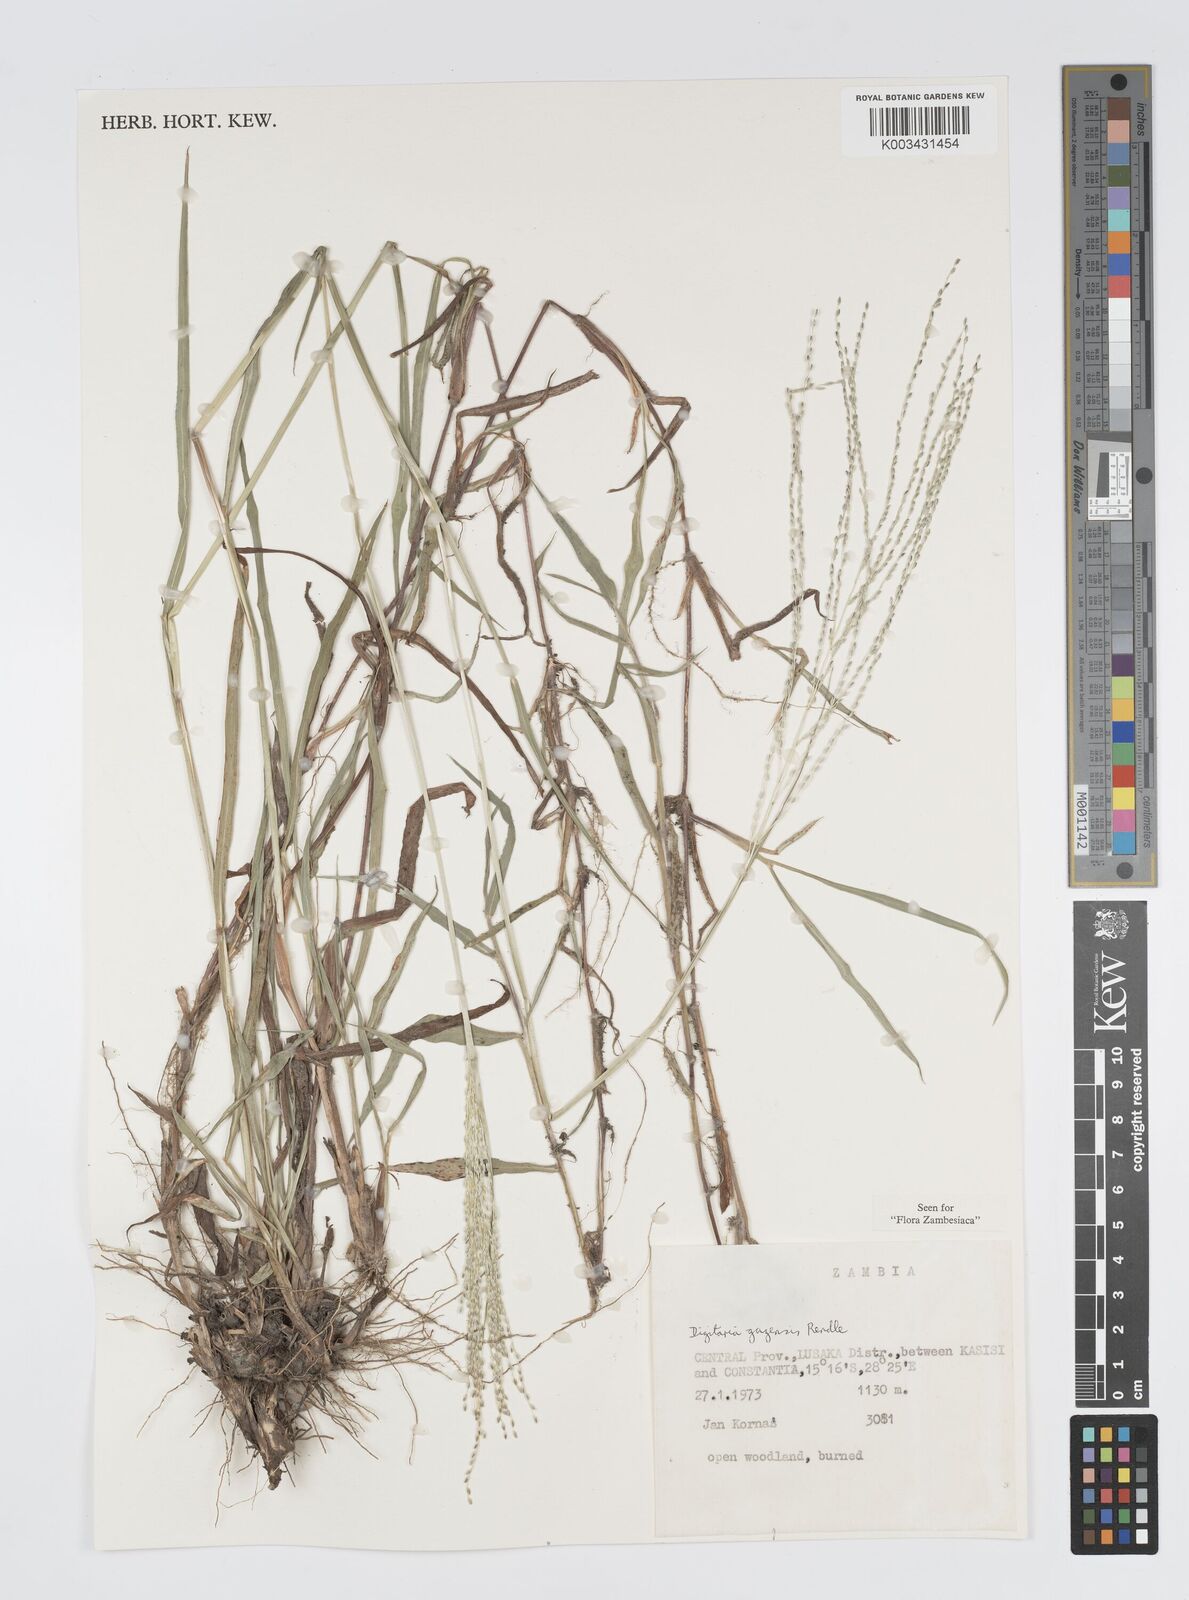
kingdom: Plantae
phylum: Tracheophyta
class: Liliopsida
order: Poales
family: Poaceae
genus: Digitaria
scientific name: Digitaria gazensis
